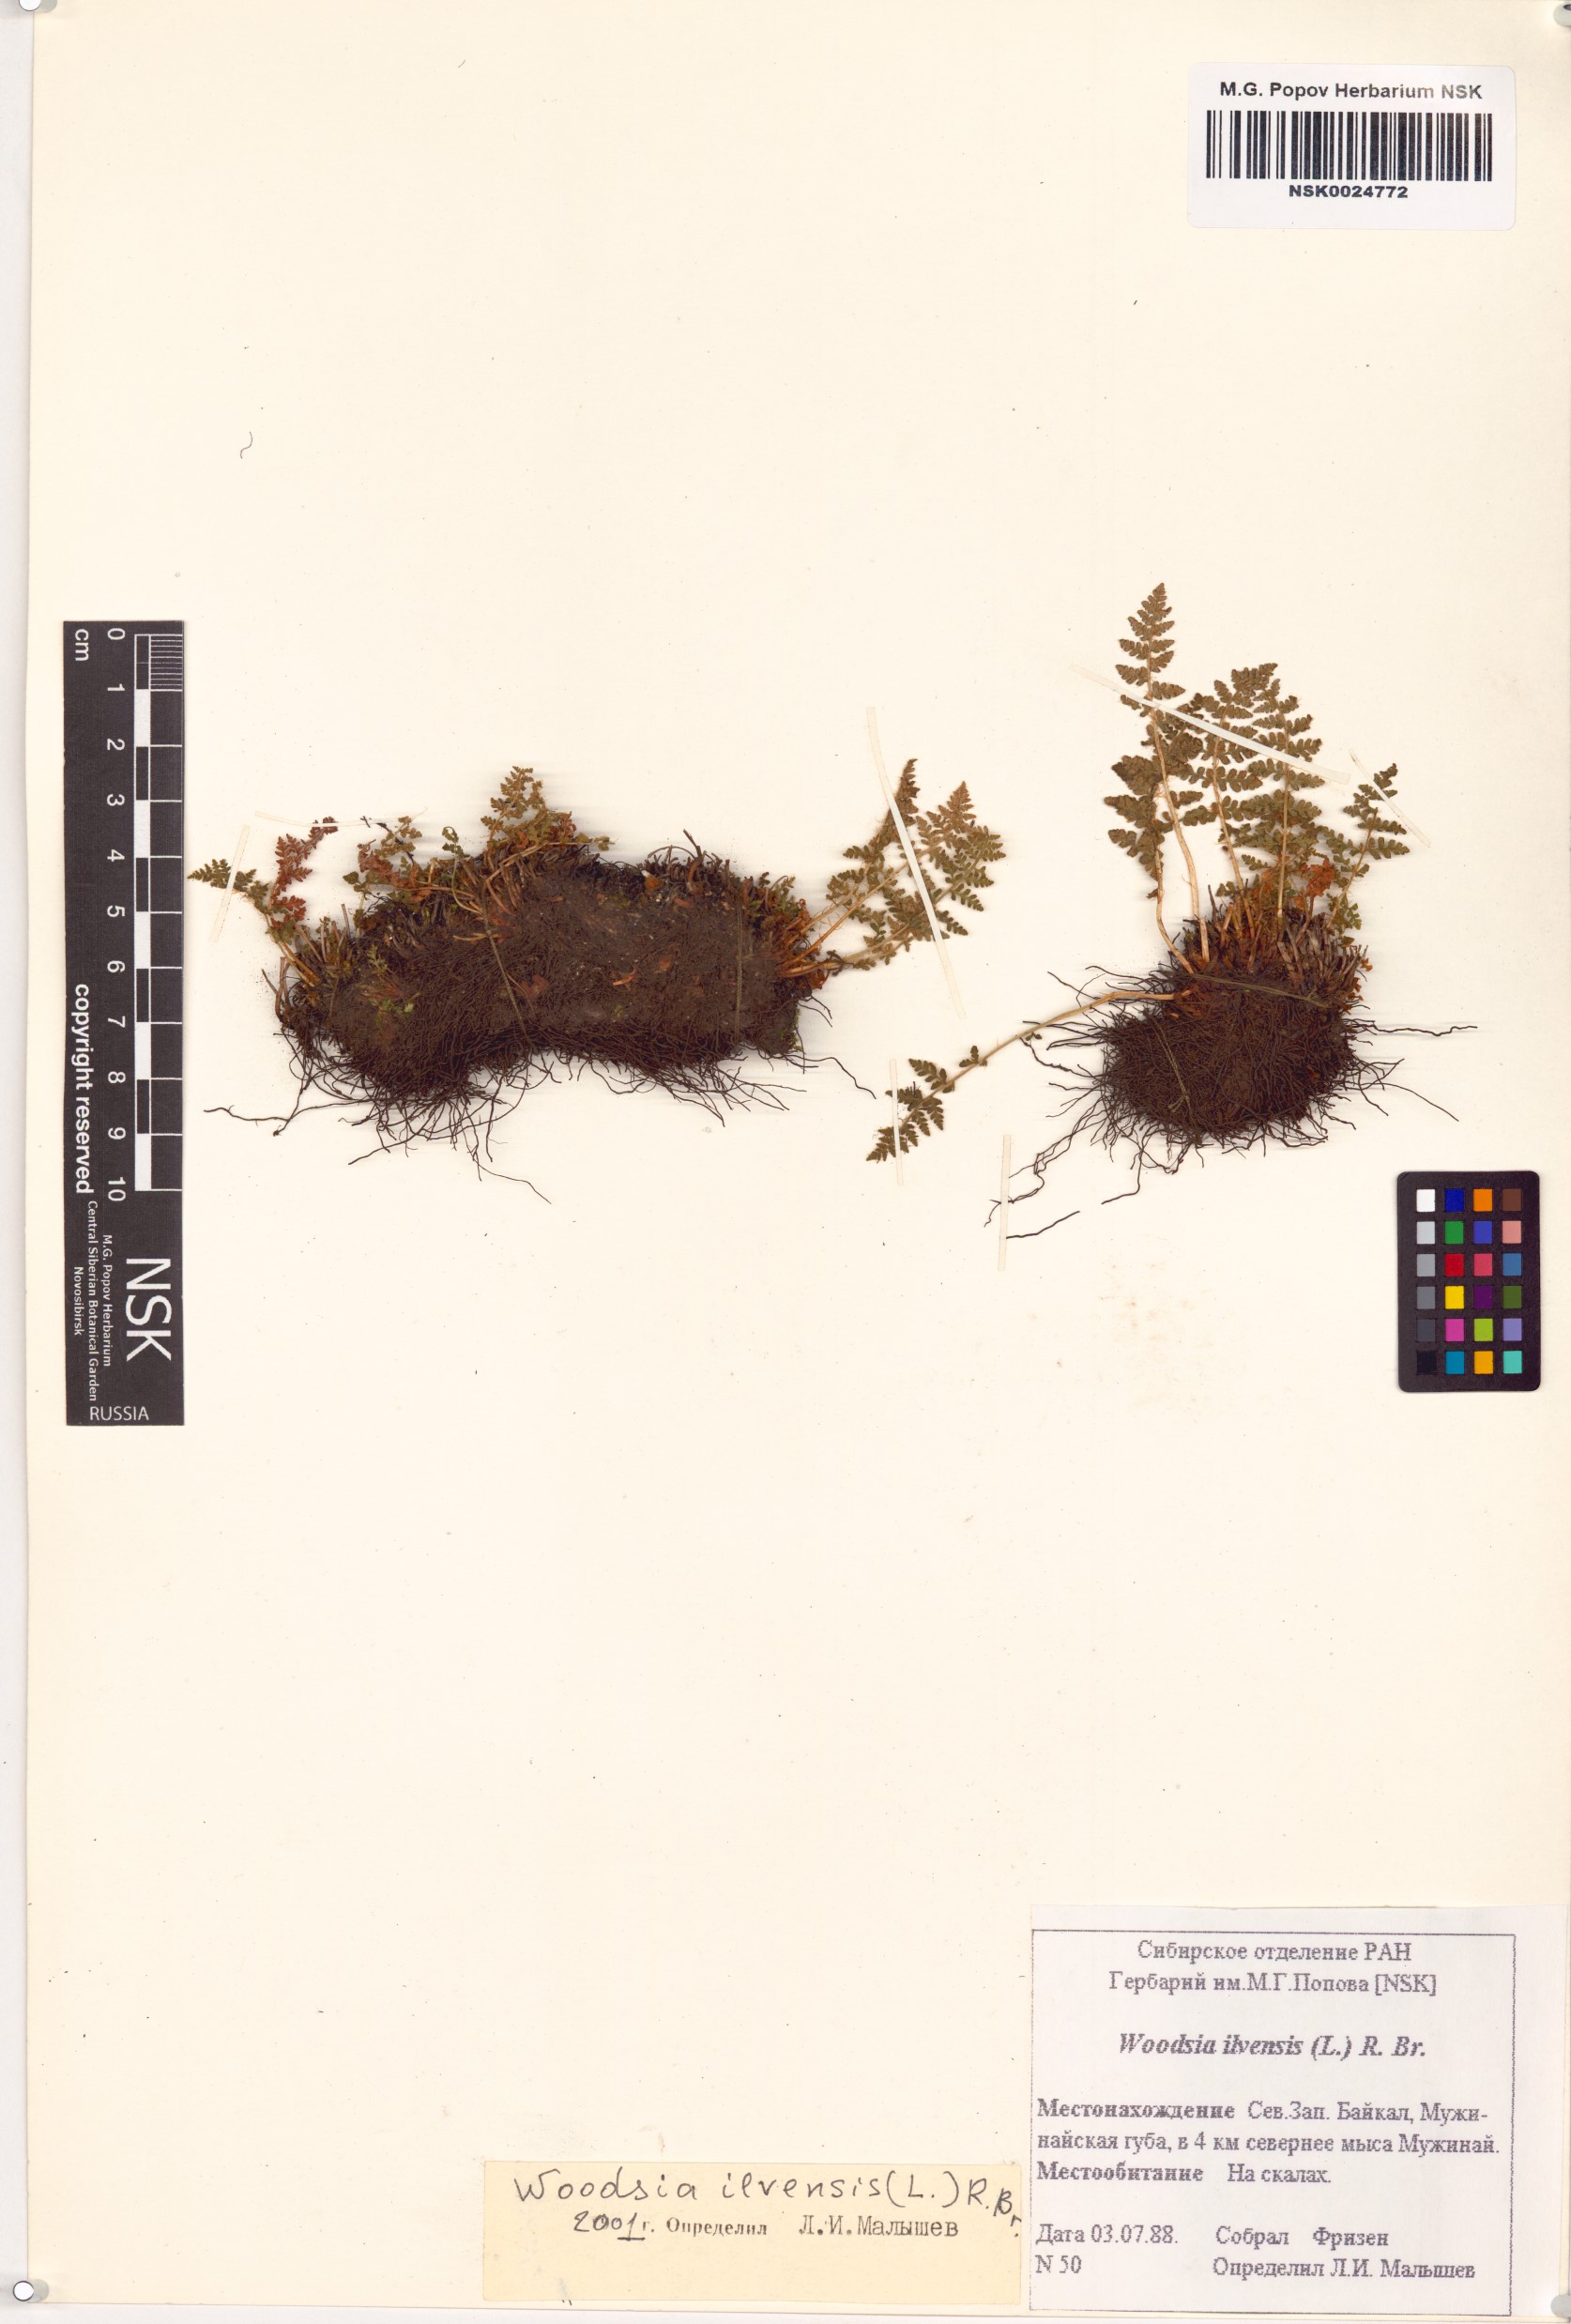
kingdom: Plantae
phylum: Tracheophyta
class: Polypodiopsida
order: Polypodiales
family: Woodsiaceae
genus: Woodsia
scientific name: Woodsia ilvensis
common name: Fragrant woodsia
